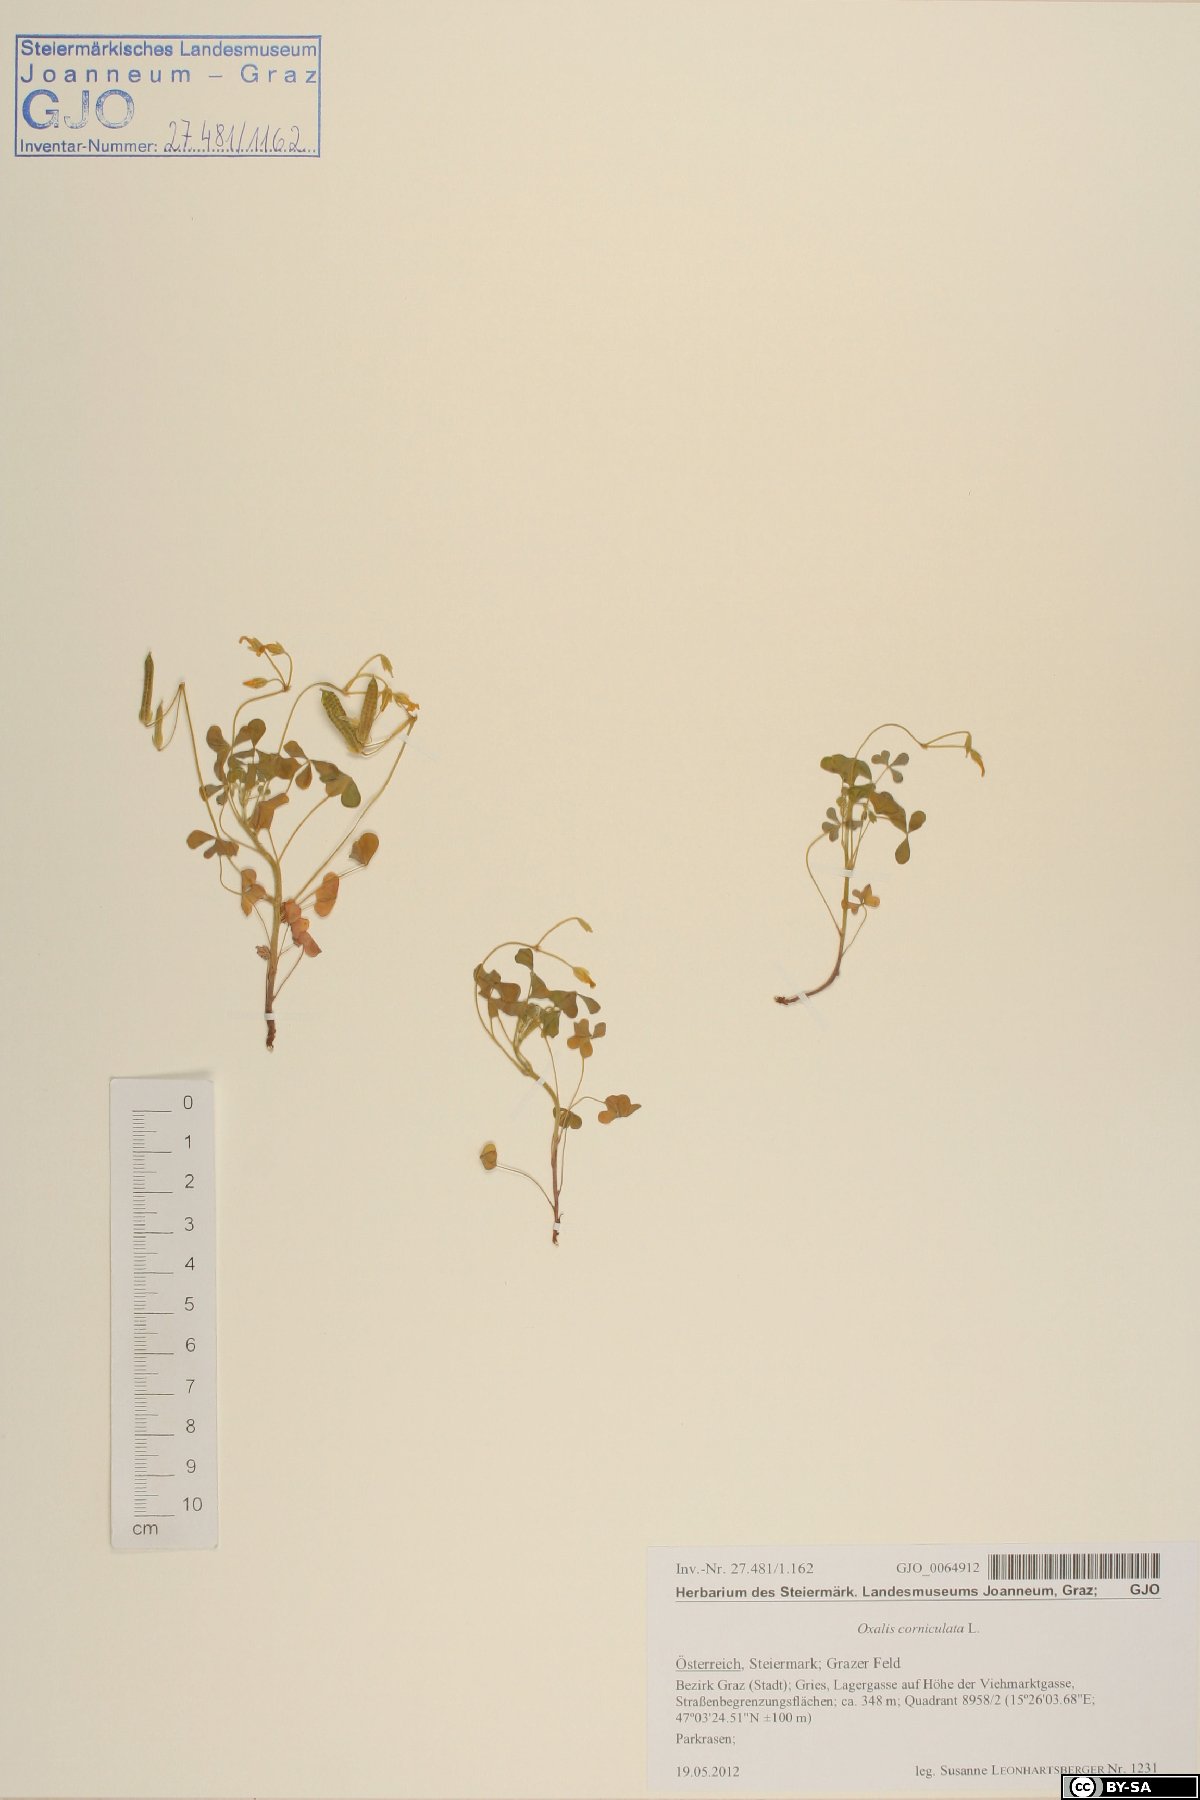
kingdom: Plantae
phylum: Tracheophyta
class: Magnoliopsida
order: Oxalidales
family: Oxalidaceae
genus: Oxalis
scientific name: Oxalis corniculata
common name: Procumbent yellow-sorrel
